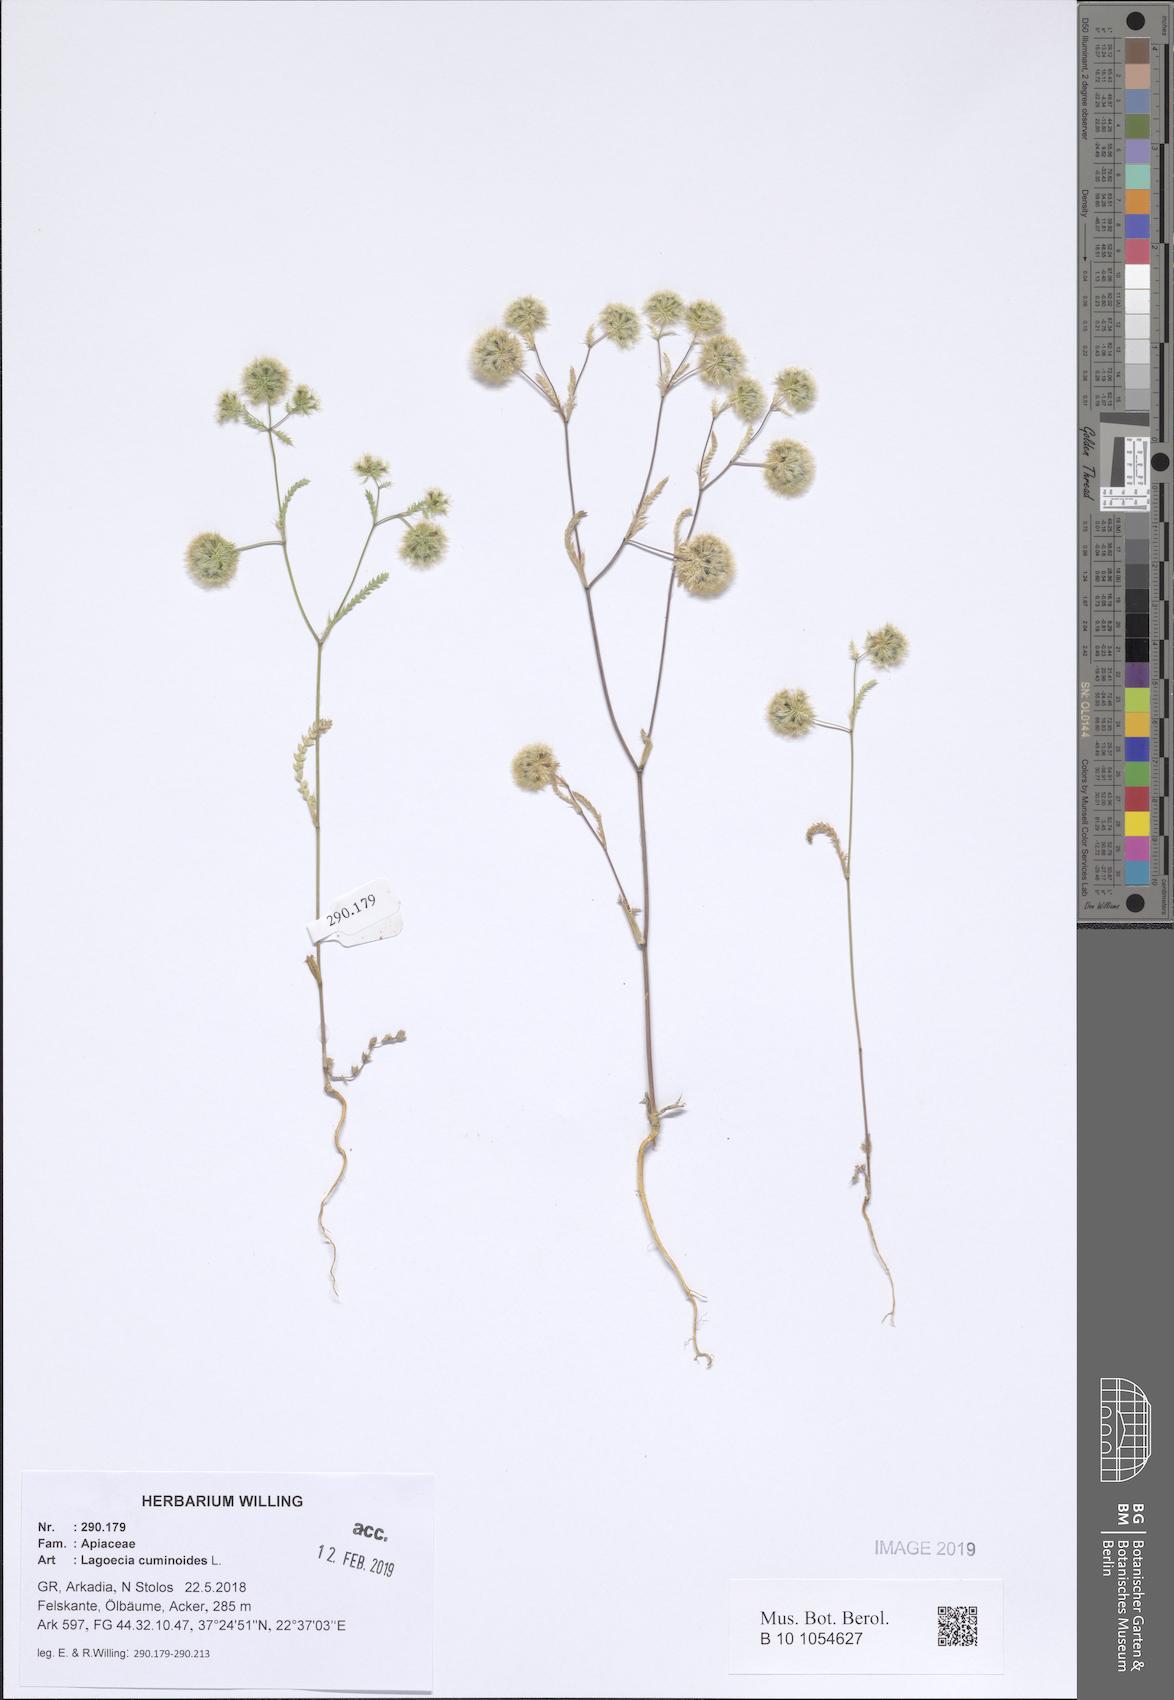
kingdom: Plantae
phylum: Tracheophyta
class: Magnoliopsida
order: Apiales
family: Apiaceae
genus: Lagoecia
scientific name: Lagoecia cuminoides
